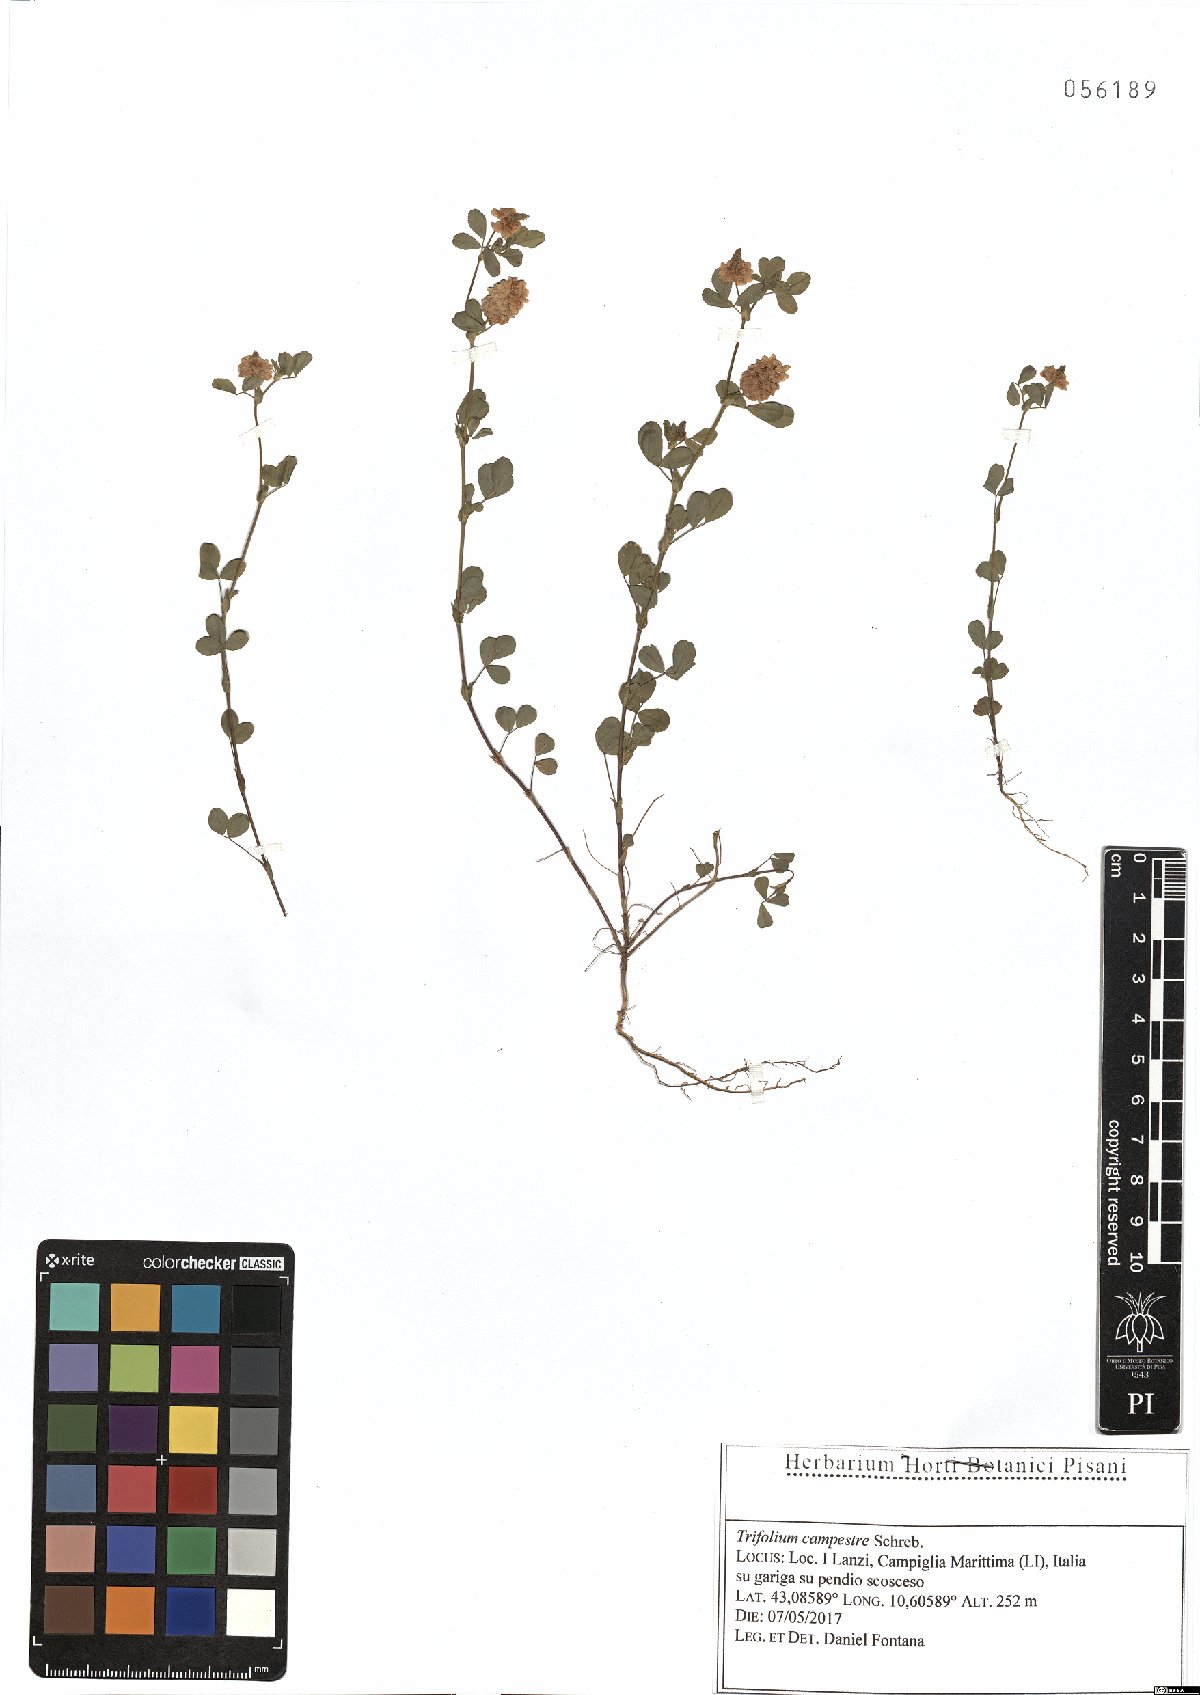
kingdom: Plantae
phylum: Tracheophyta
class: Magnoliopsida
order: Fabales
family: Fabaceae
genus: Trifolium
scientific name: Trifolium campestre
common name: Field clover
